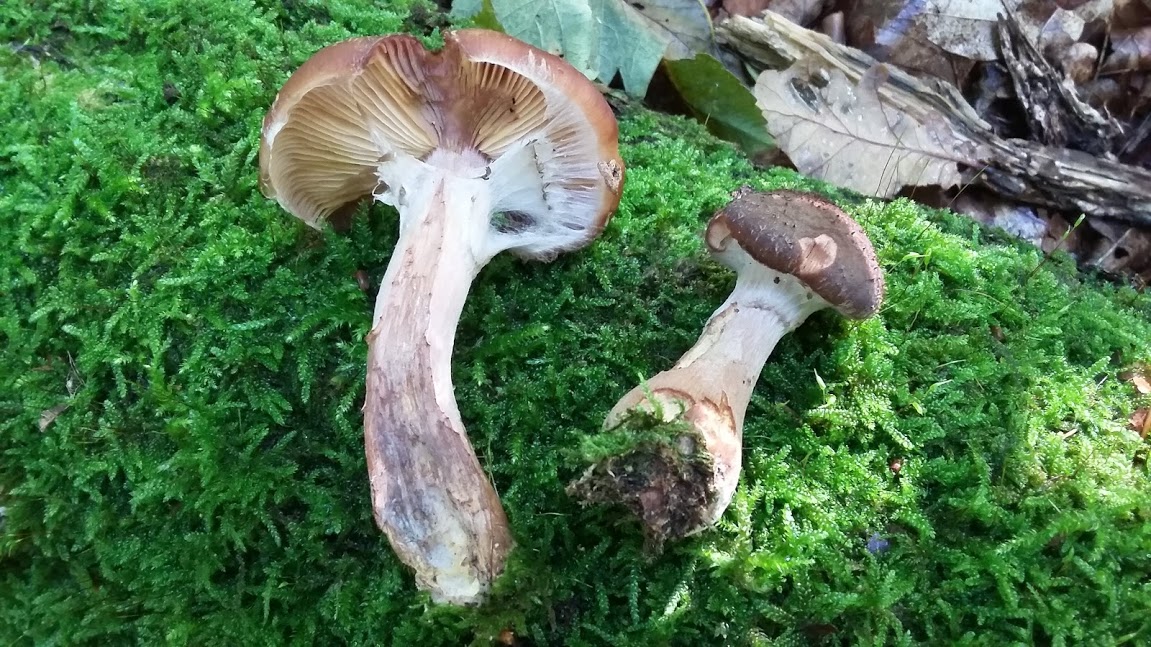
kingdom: Fungi
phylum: Basidiomycota
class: Agaricomycetes
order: Agaricales
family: Physalacriaceae
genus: Armillaria
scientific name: Armillaria lutea
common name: køllestokket honningsvamp
